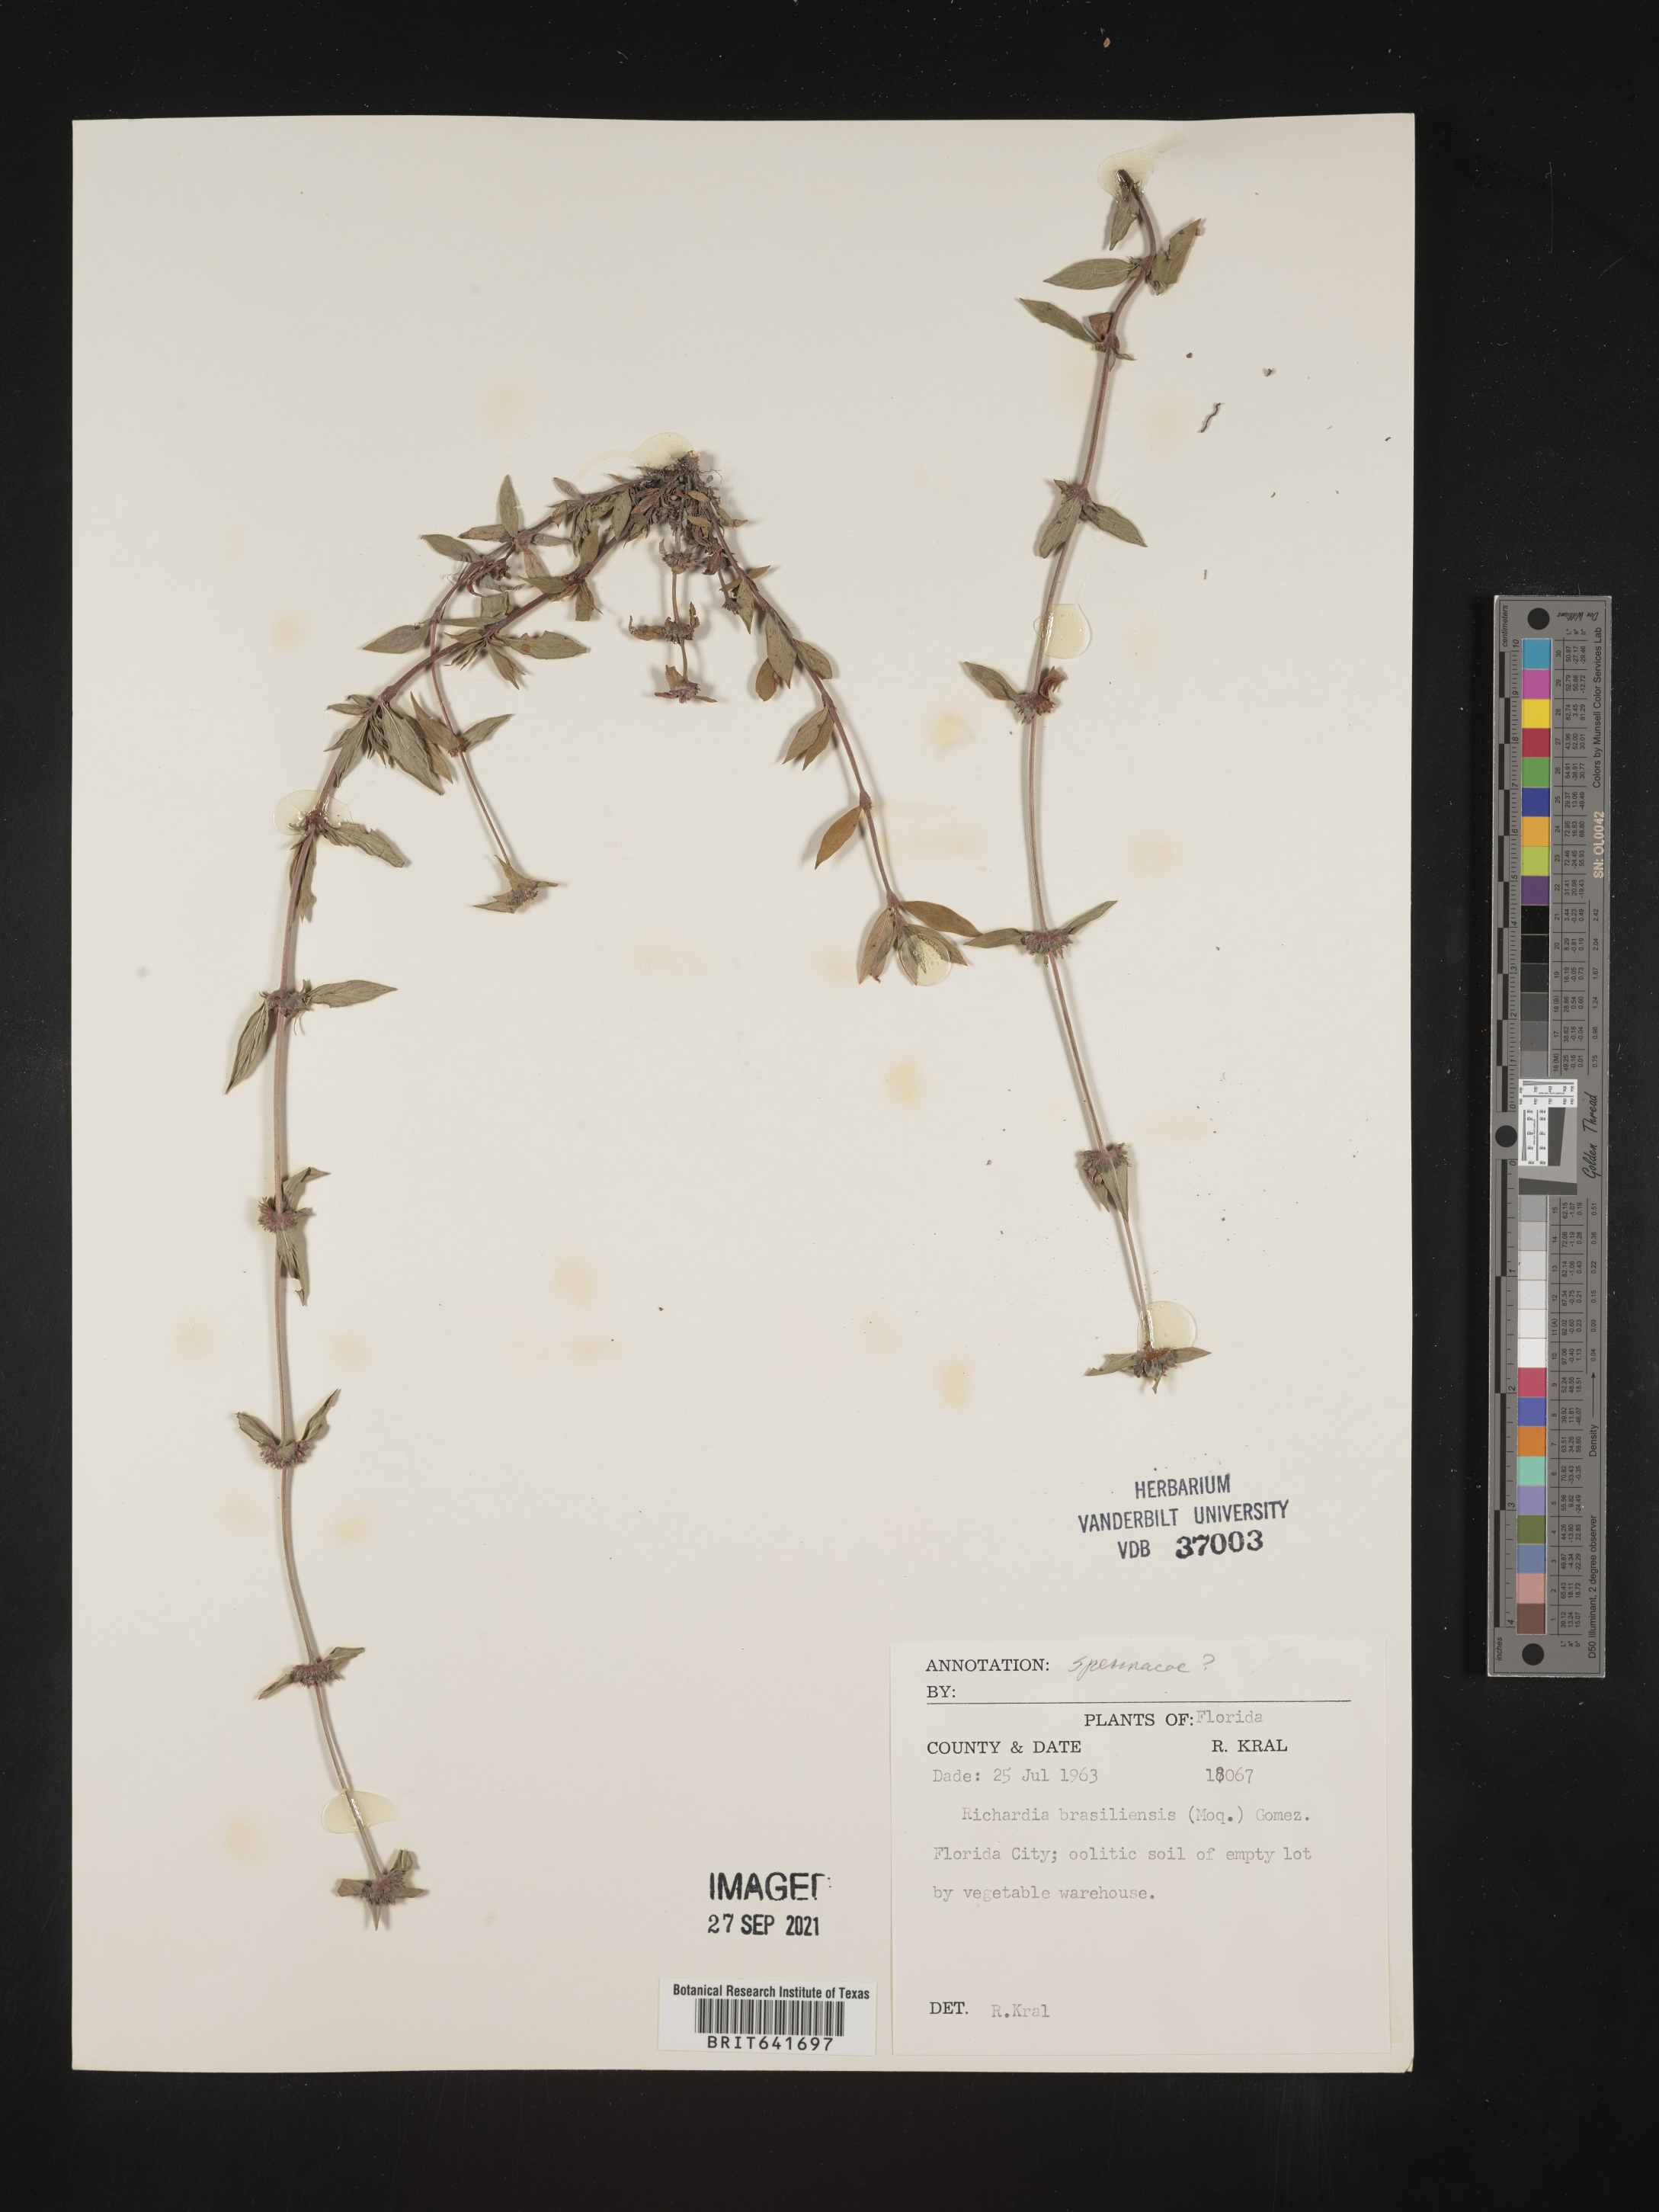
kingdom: Plantae
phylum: Tracheophyta
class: Magnoliopsida
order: Gentianales
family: Rubiaceae
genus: Spermacoce
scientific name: Spermacoce
